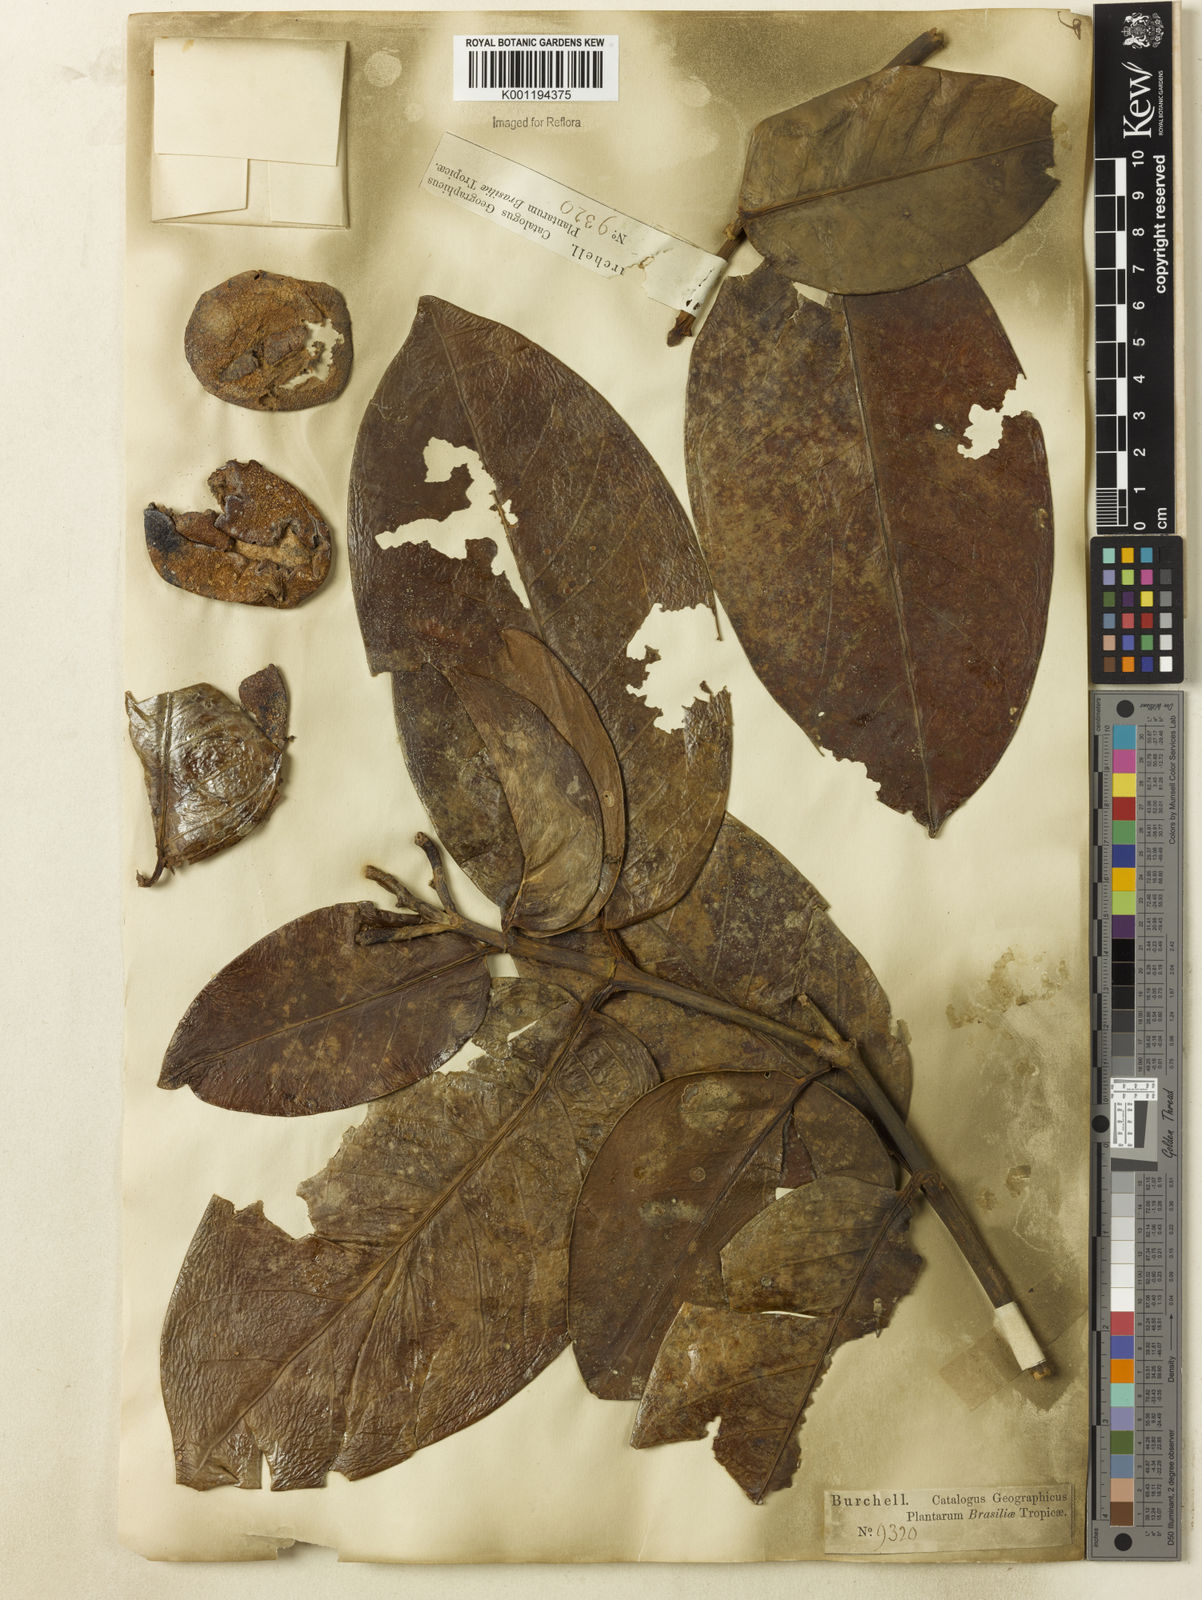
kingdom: Plantae
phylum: Tracheophyta
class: Magnoliopsida
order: Gentianales
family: Rubiaceae
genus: Posoqueria
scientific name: Posoqueria
